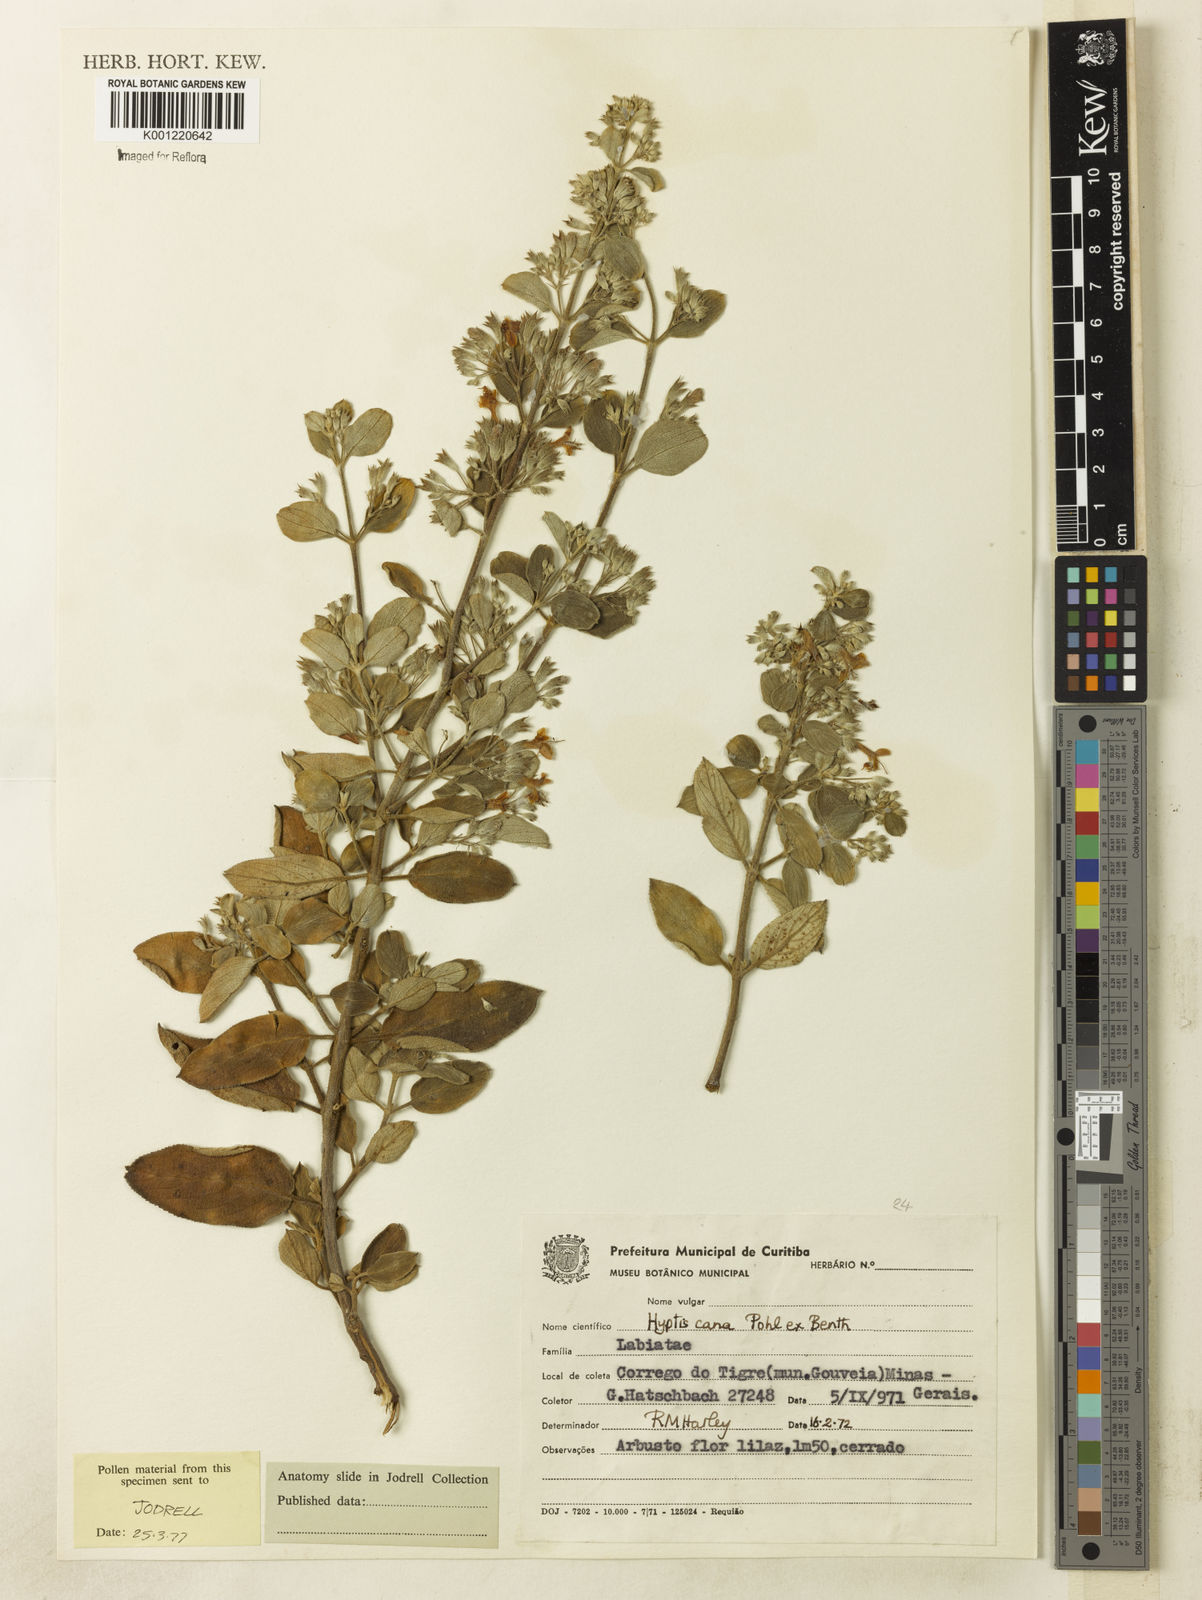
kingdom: Plantae
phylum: Tracheophyta
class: Magnoliopsida
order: Lamiales
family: Lamiaceae
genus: Hyptidendron
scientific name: Hyptidendron canum
